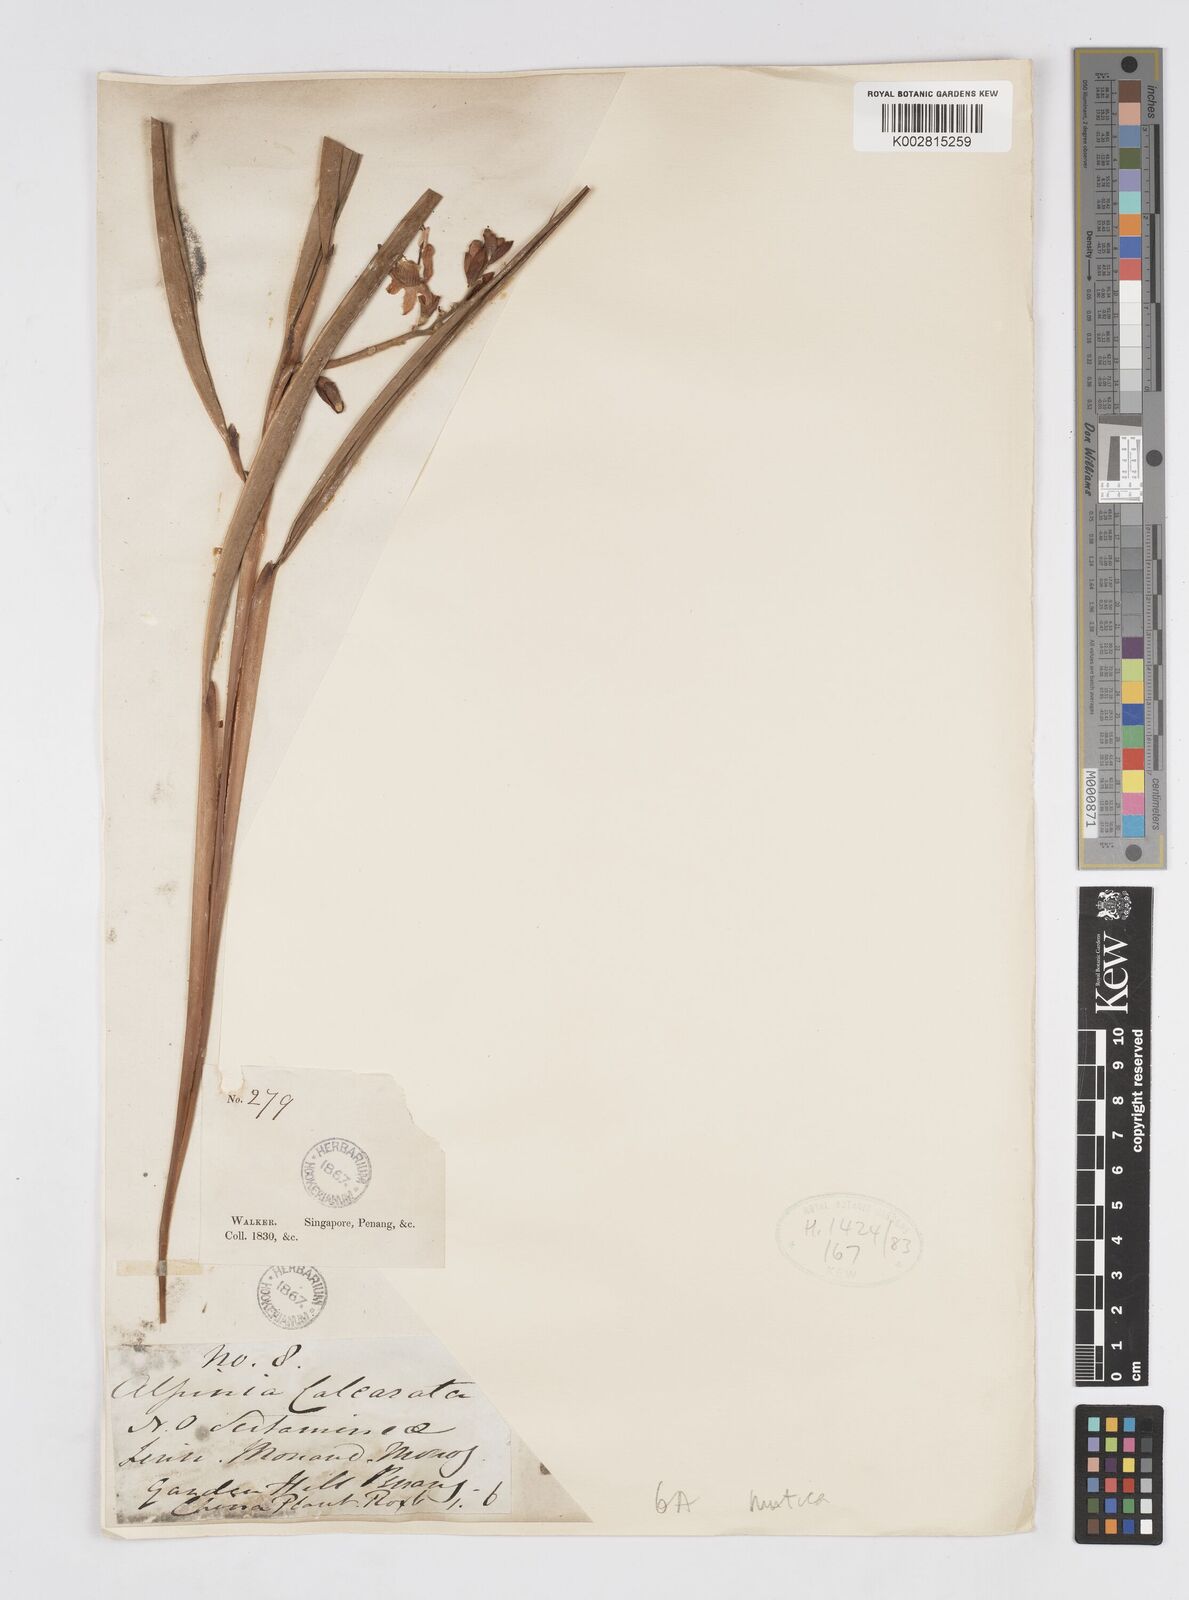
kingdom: Plantae
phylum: Tracheophyta
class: Liliopsida
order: Zingiberales
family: Zingiberaceae
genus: Alpinia
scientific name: Alpinia mutica
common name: Small shell ginger
